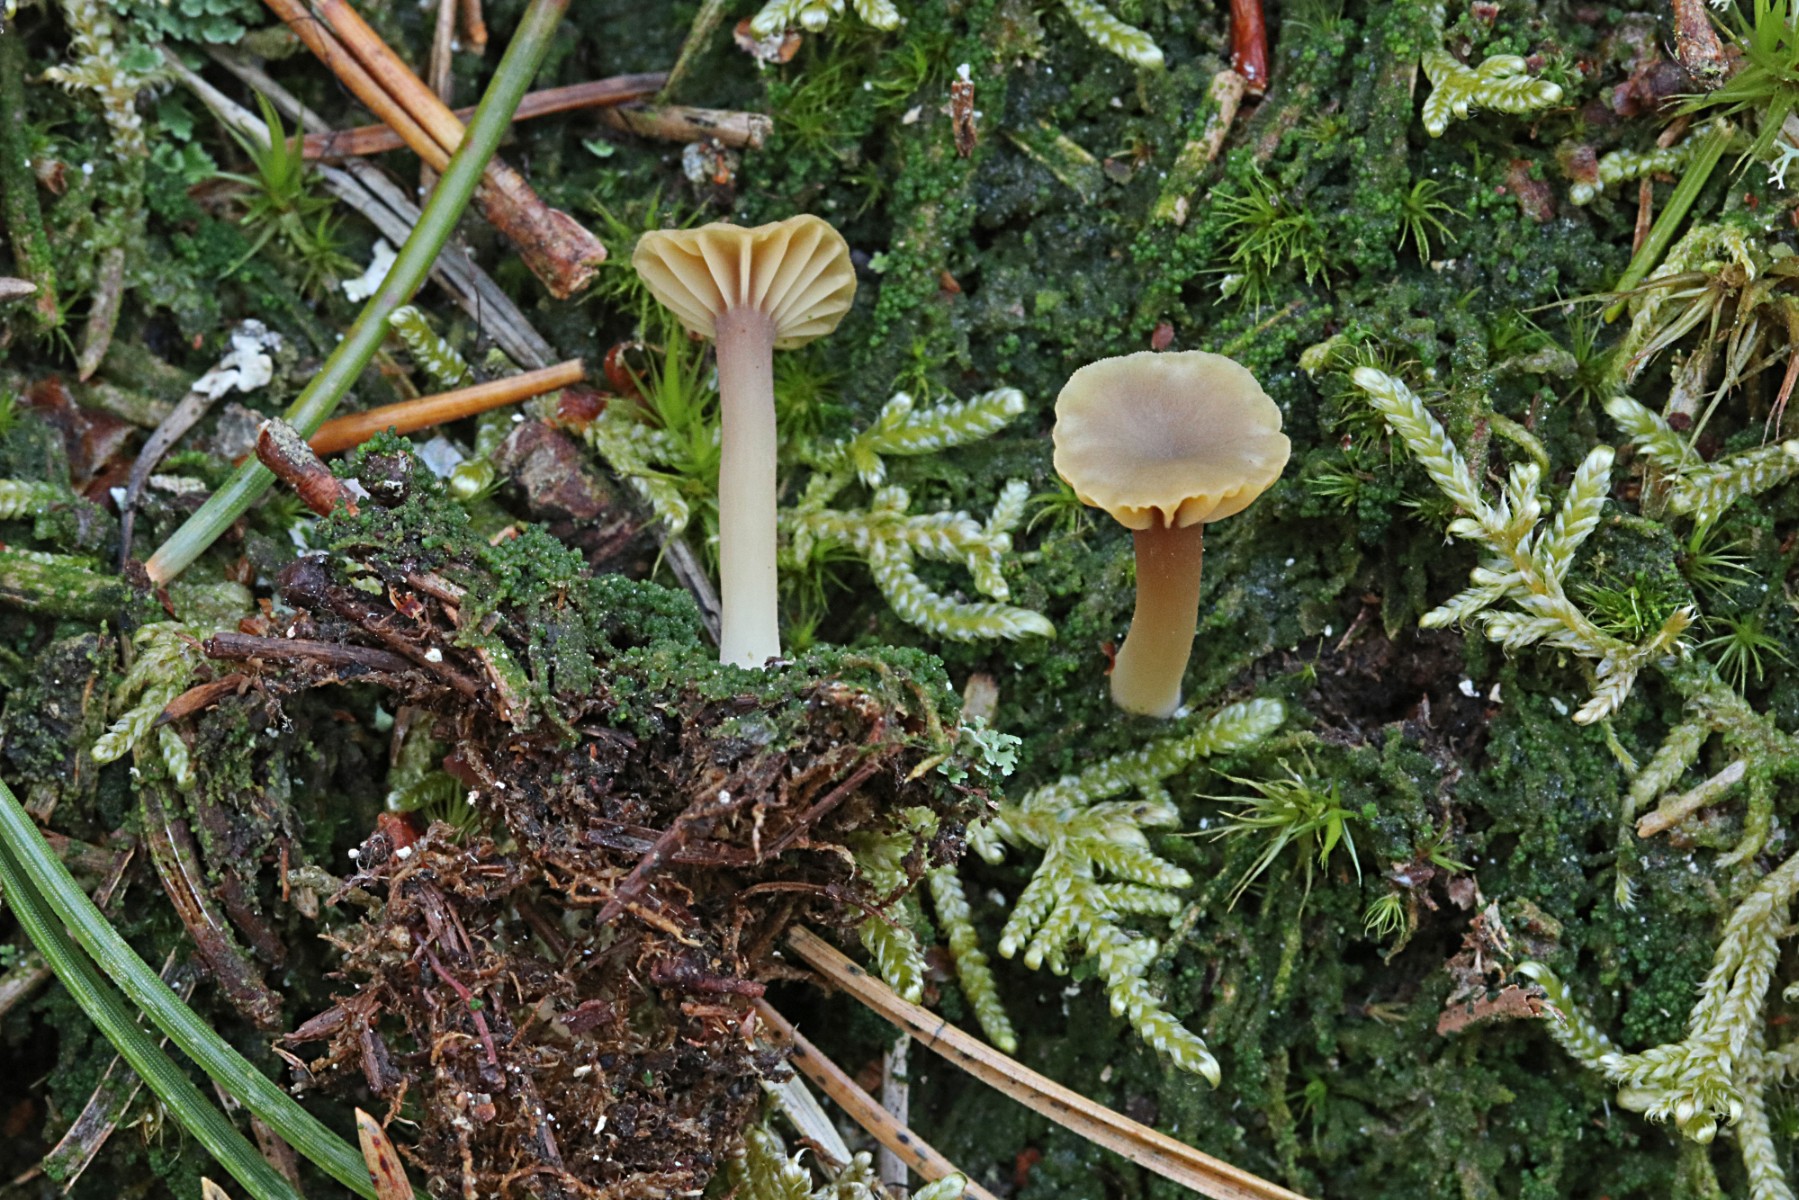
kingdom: Fungi
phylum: Basidiomycota
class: Agaricomycetes
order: Agaricales
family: Hygrophoraceae
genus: Lichenomphalia
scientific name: Lichenomphalia umbellifera
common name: tørve-lavhat
